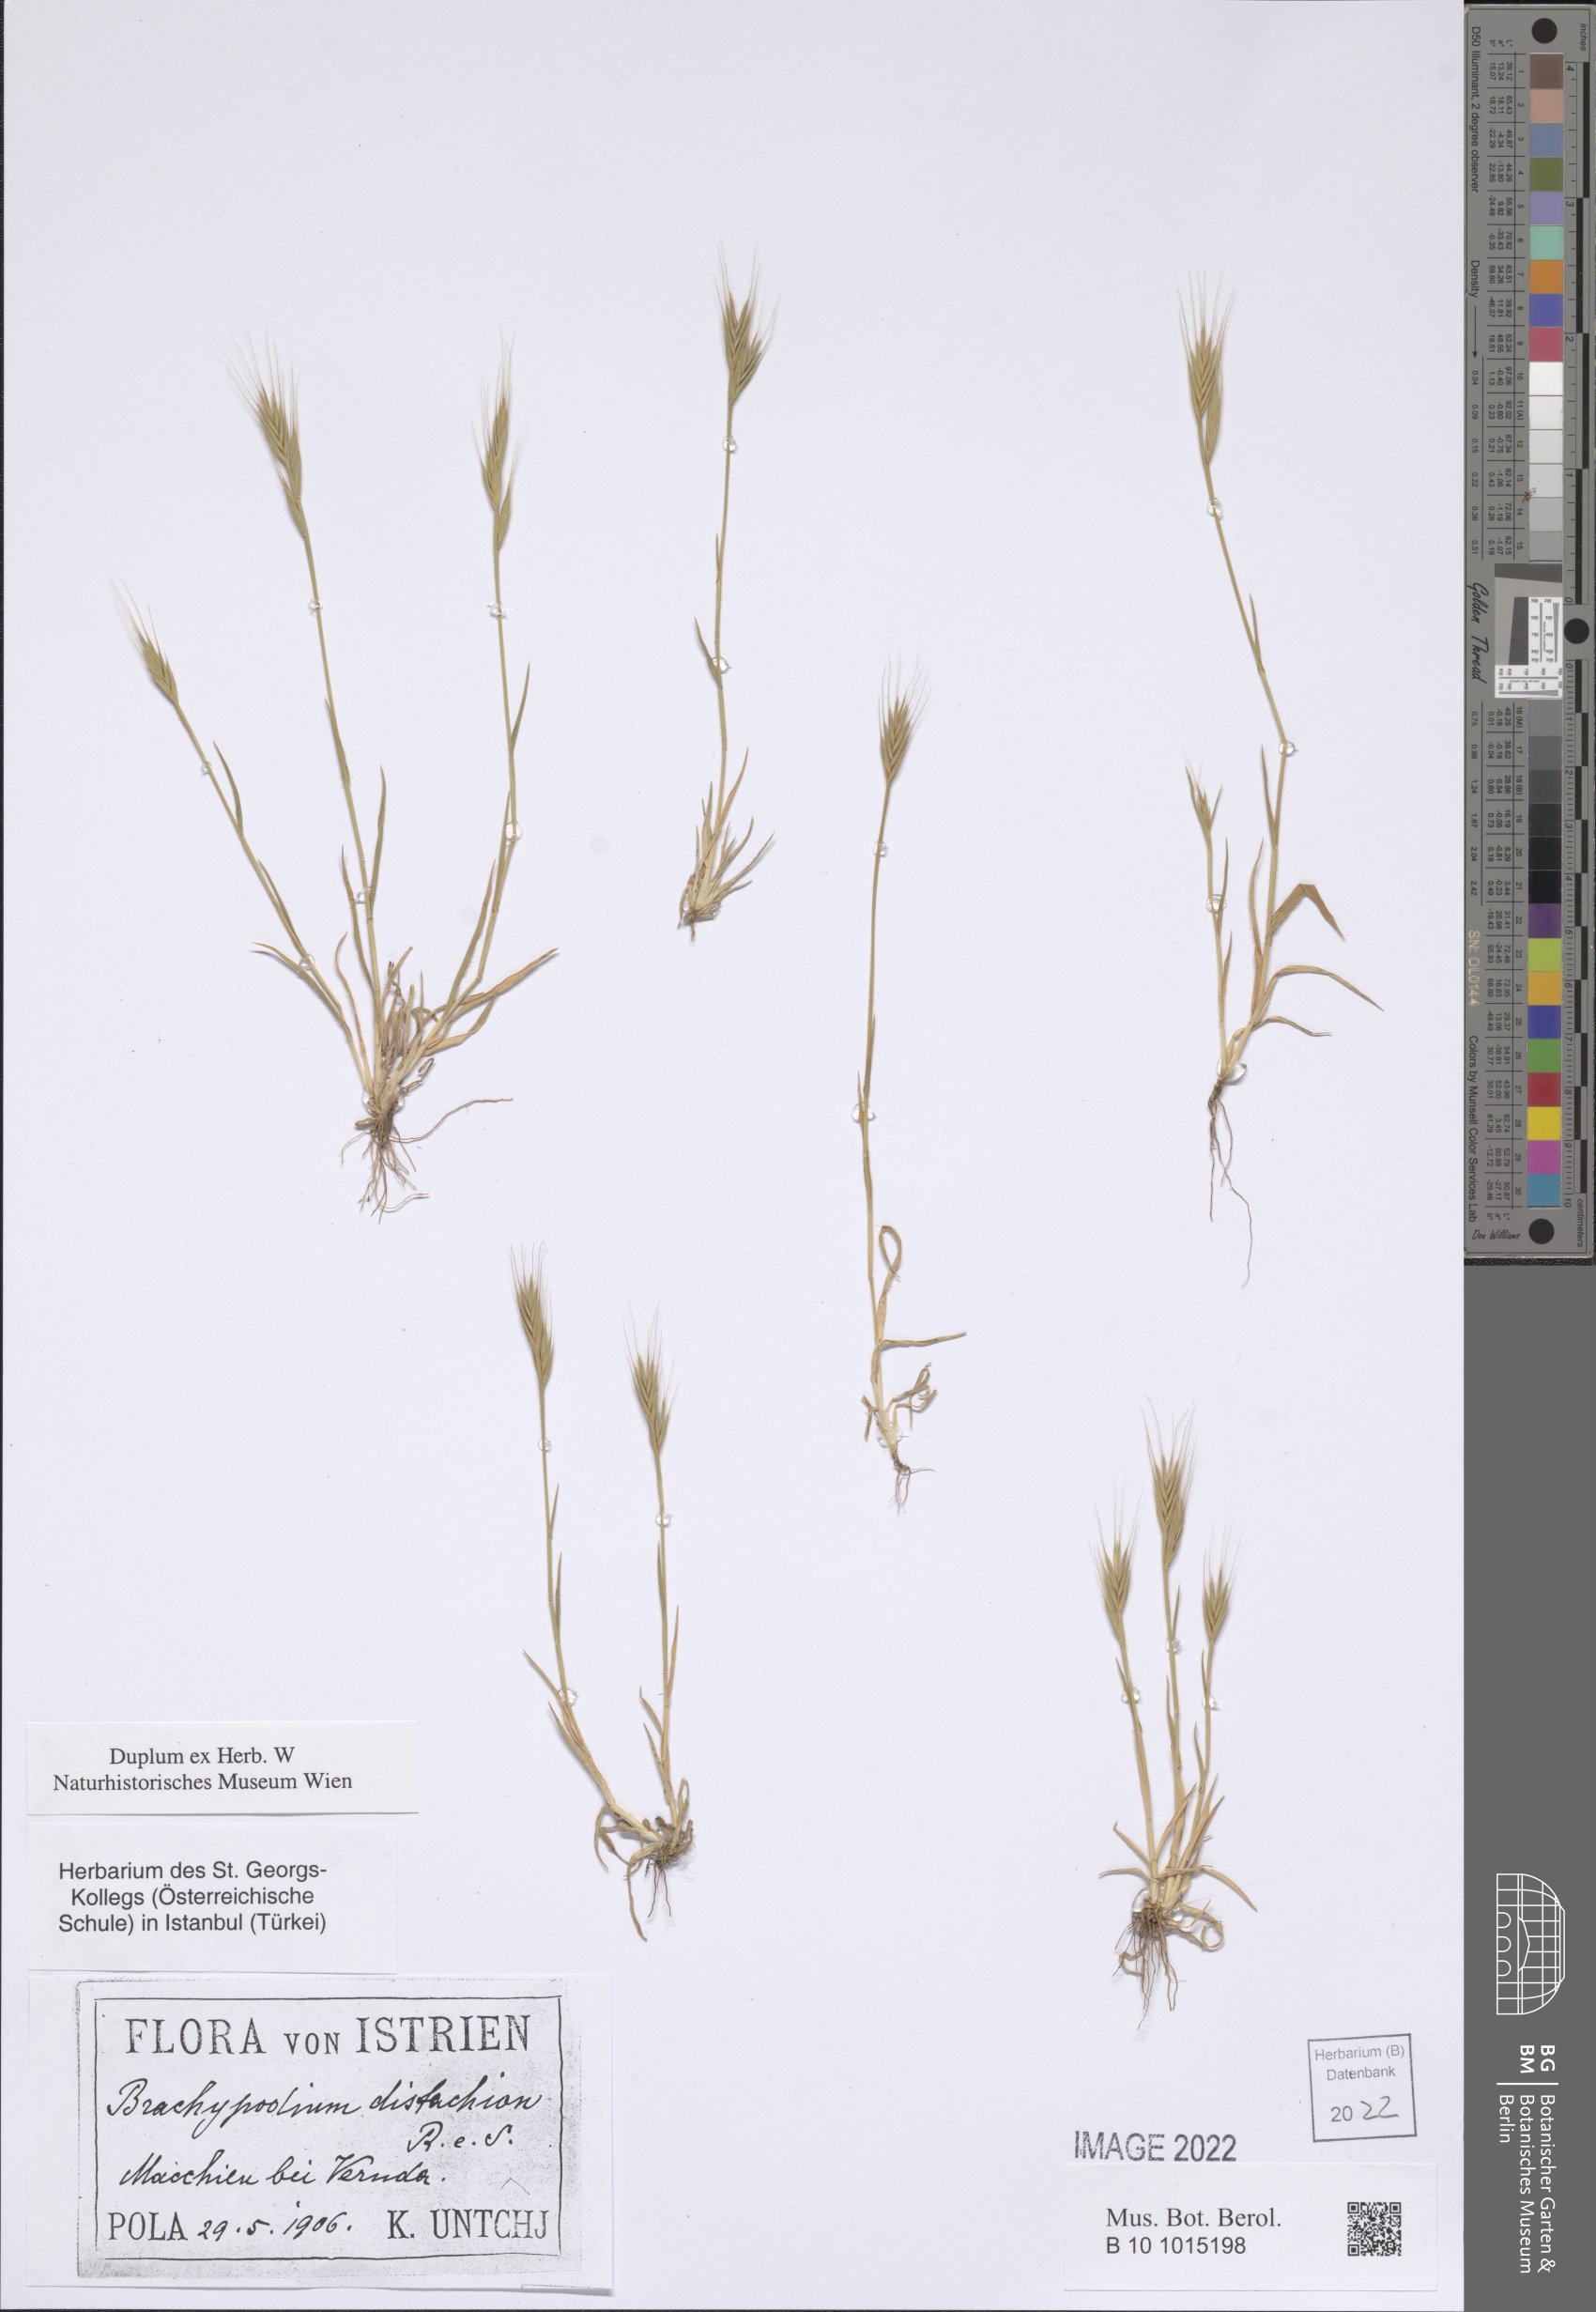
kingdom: Plantae
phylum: Tracheophyta
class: Liliopsida
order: Poales
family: Poaceae
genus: Brachypodium
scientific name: Brachypodium distachyon
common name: Stiff brome
